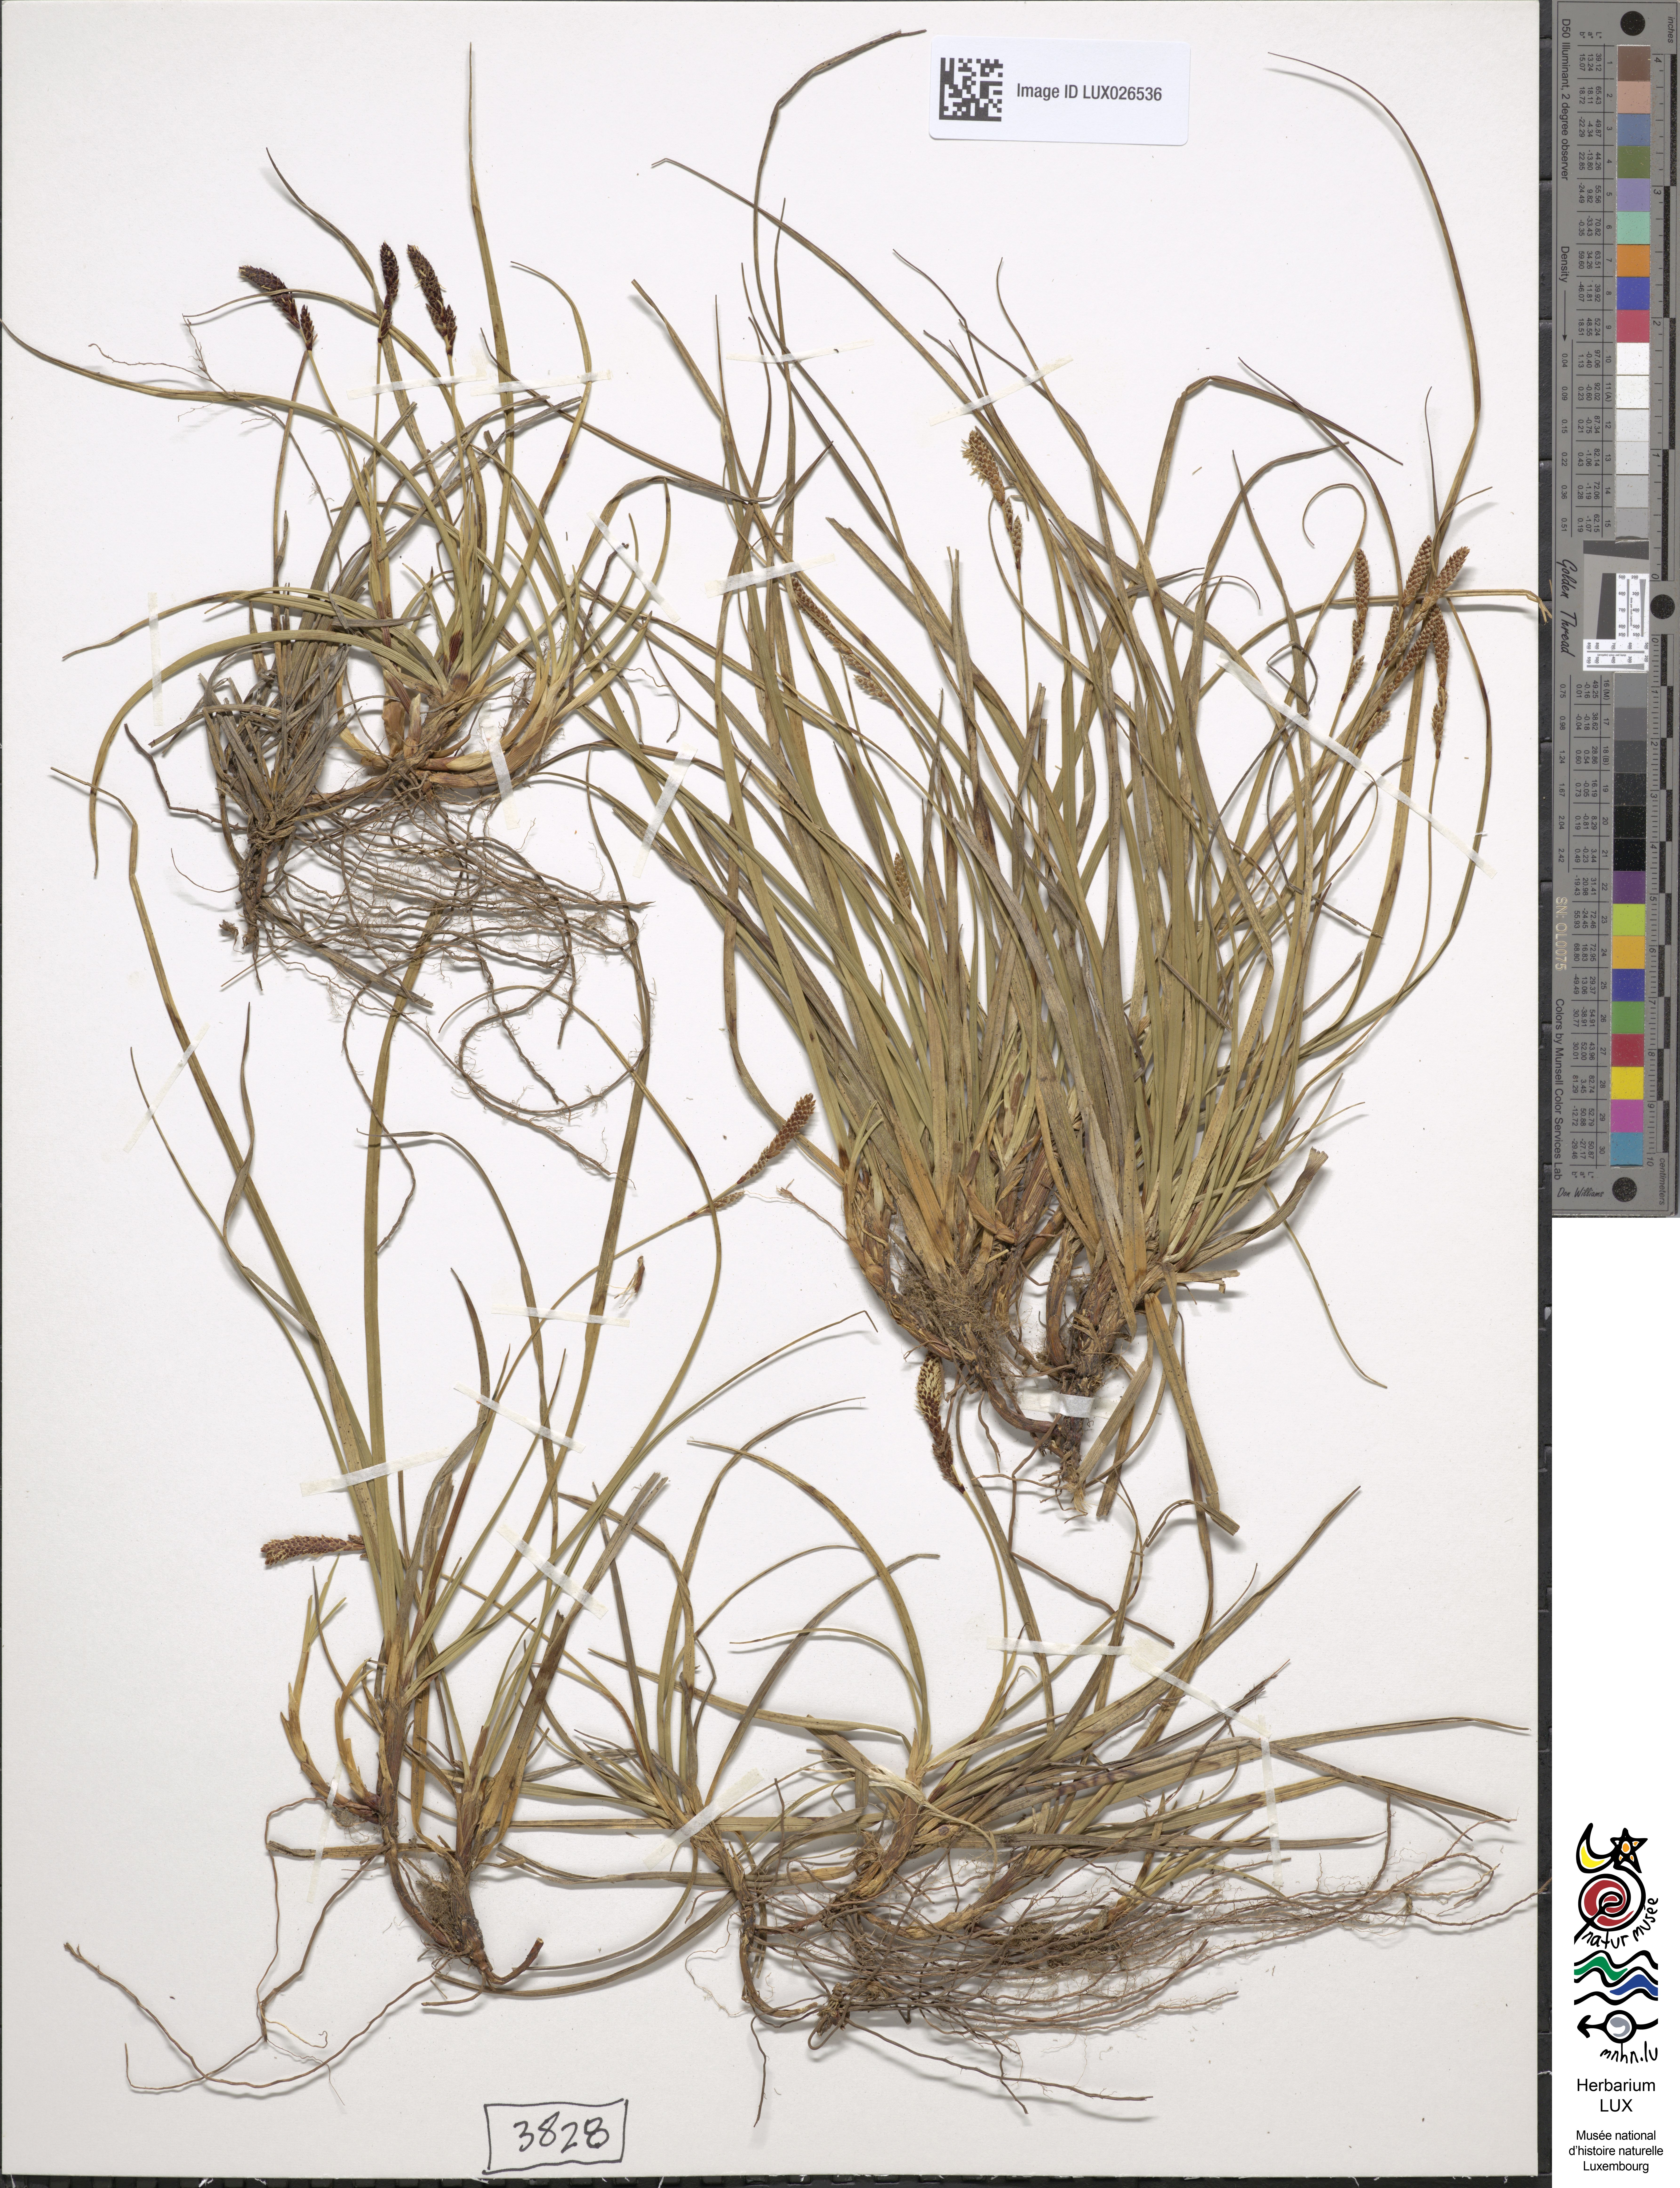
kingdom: Plantae
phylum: Tracheophyta
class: Liliopsida
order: Poales
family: Cyperaceae
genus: Carex
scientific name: Carex ericetorum
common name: Rare spring-sedge
